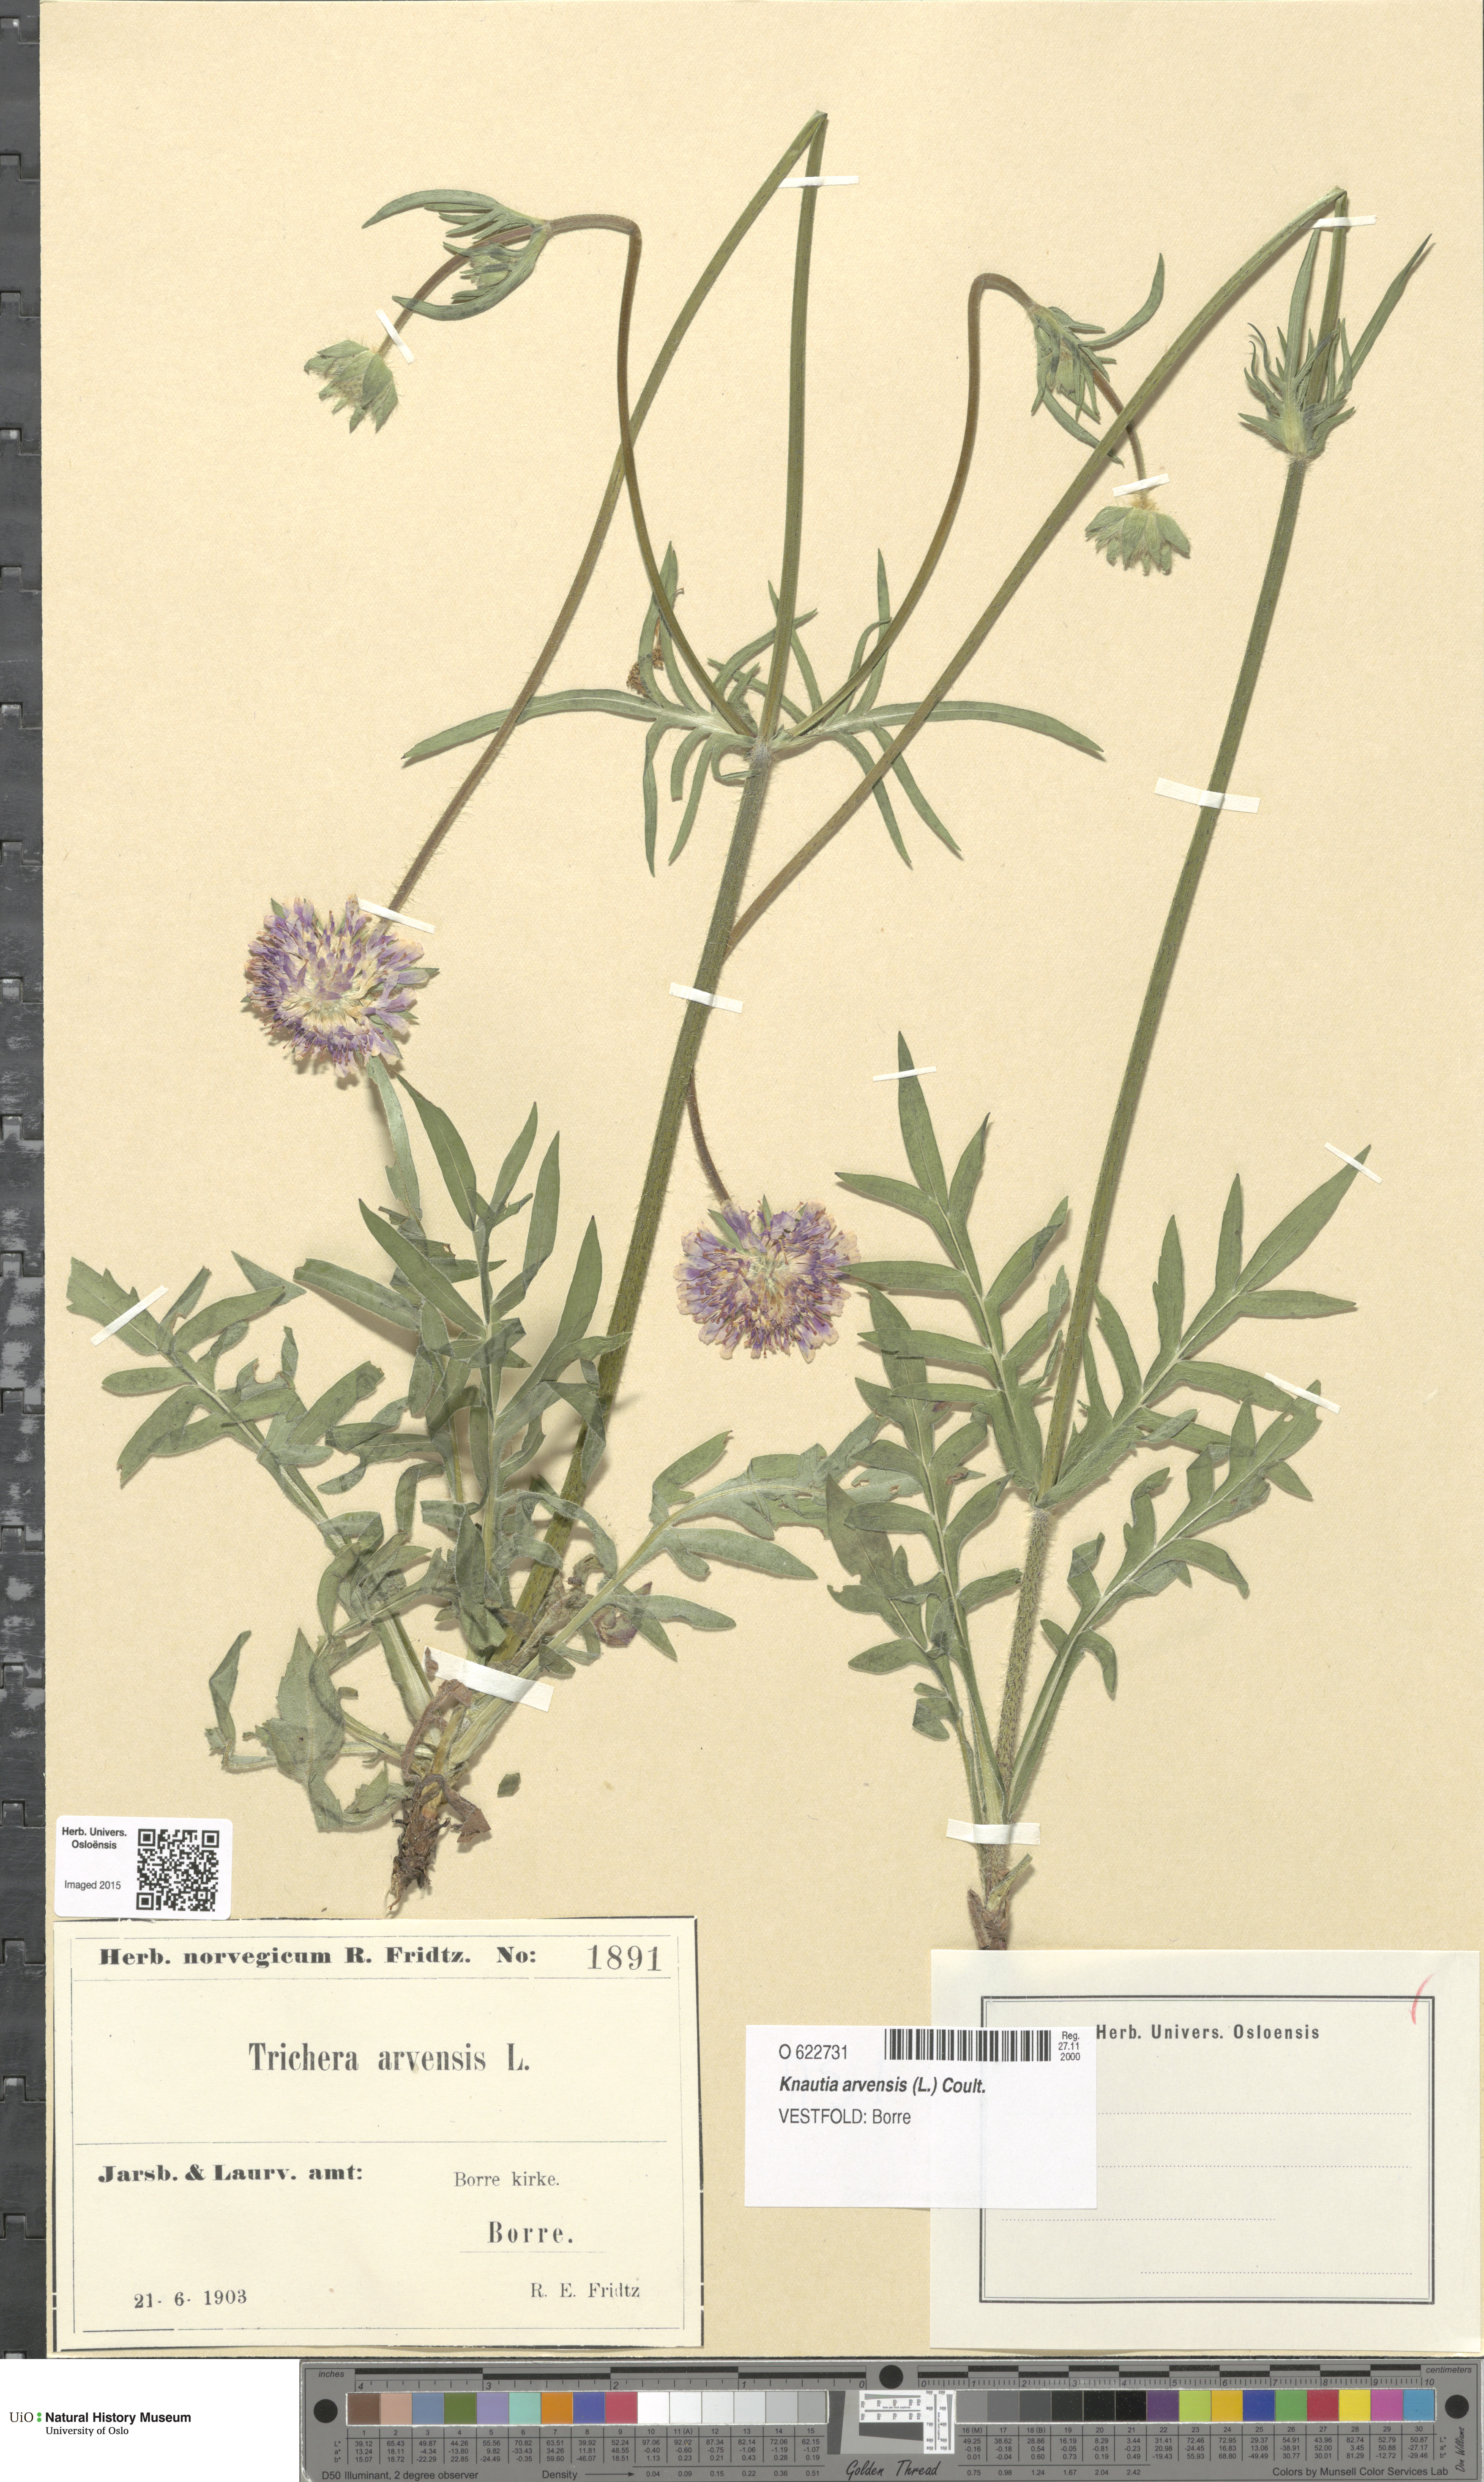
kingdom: Plantae
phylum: Tracheophyta
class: Magnoliopsida
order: Dipsacales
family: Caprifoliaceae
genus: Knautia
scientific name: Knautia arvensis
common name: Field scabiosa
